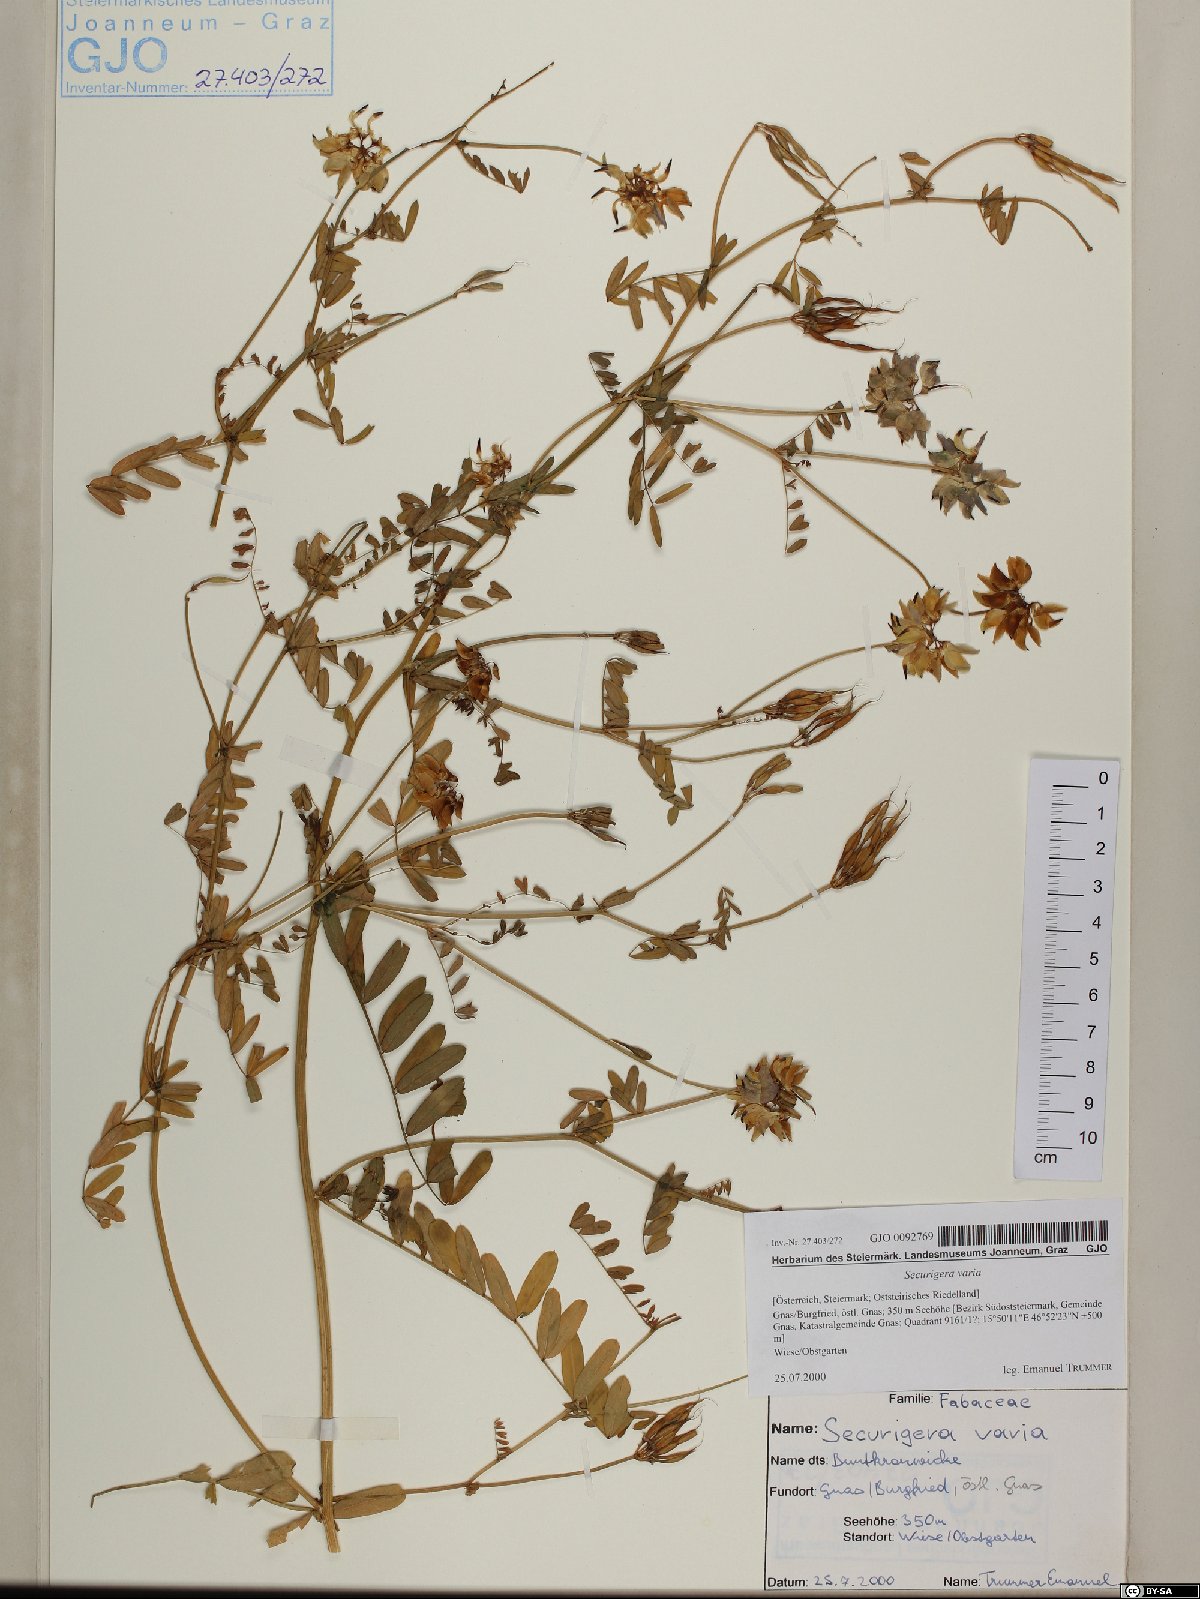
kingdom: Plantae
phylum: Tracheophyta
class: Magnoliopsida
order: Fabales
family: Fabaceae
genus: Coronilla
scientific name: Coronilla varia
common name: Crownvetch
